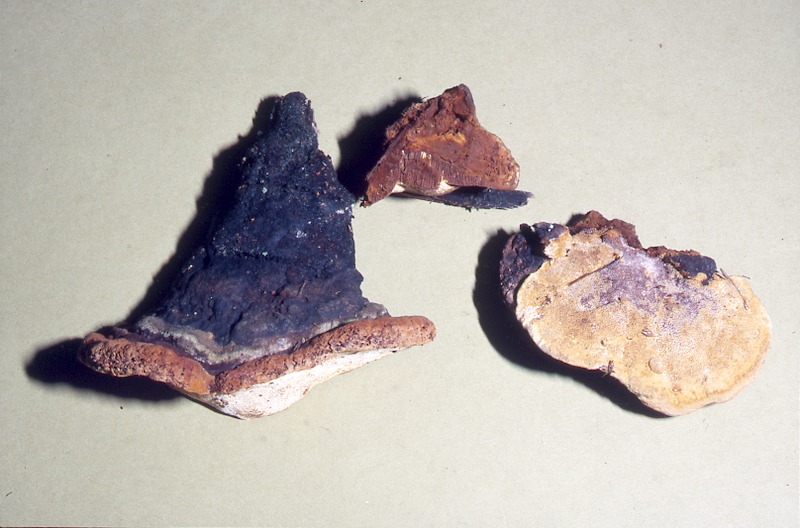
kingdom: Plantae
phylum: Tracheophyta
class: Pinopsida
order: Pinales
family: Pinaceae
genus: Abies
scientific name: Abies alba
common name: Silver fir
